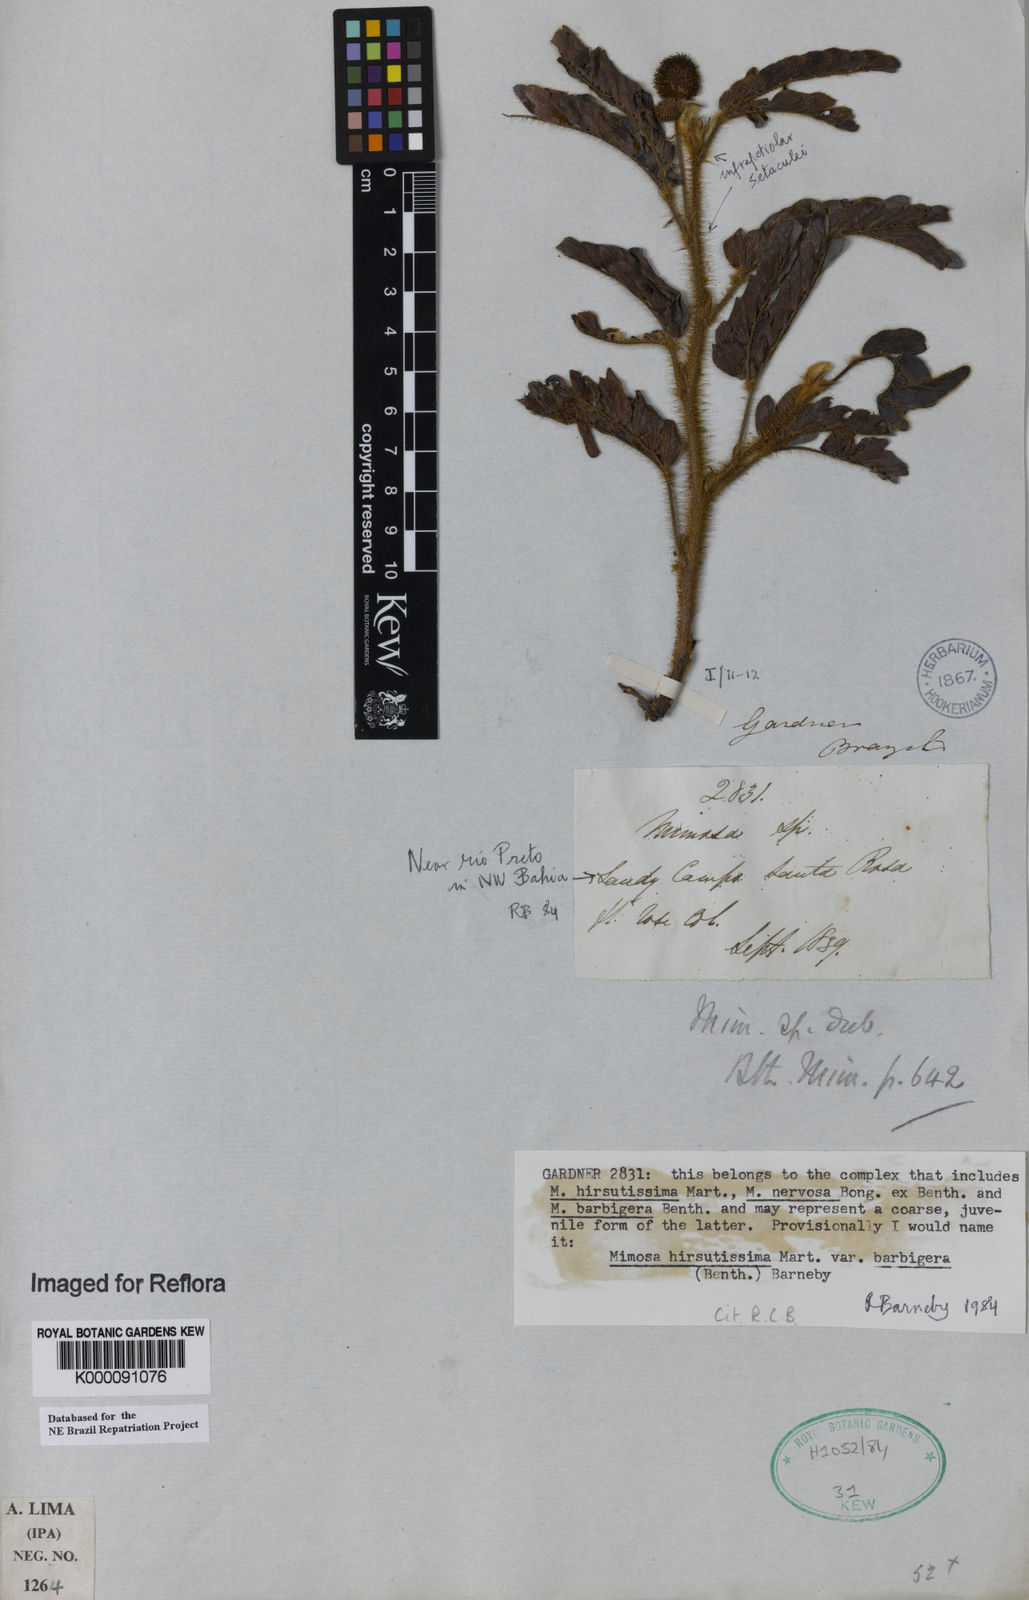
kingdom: Plantae
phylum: Tracheophyta
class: Magnoliopsida
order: Fabales
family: Fabaceae
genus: Mimosa
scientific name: Mimosa hirsutissima
